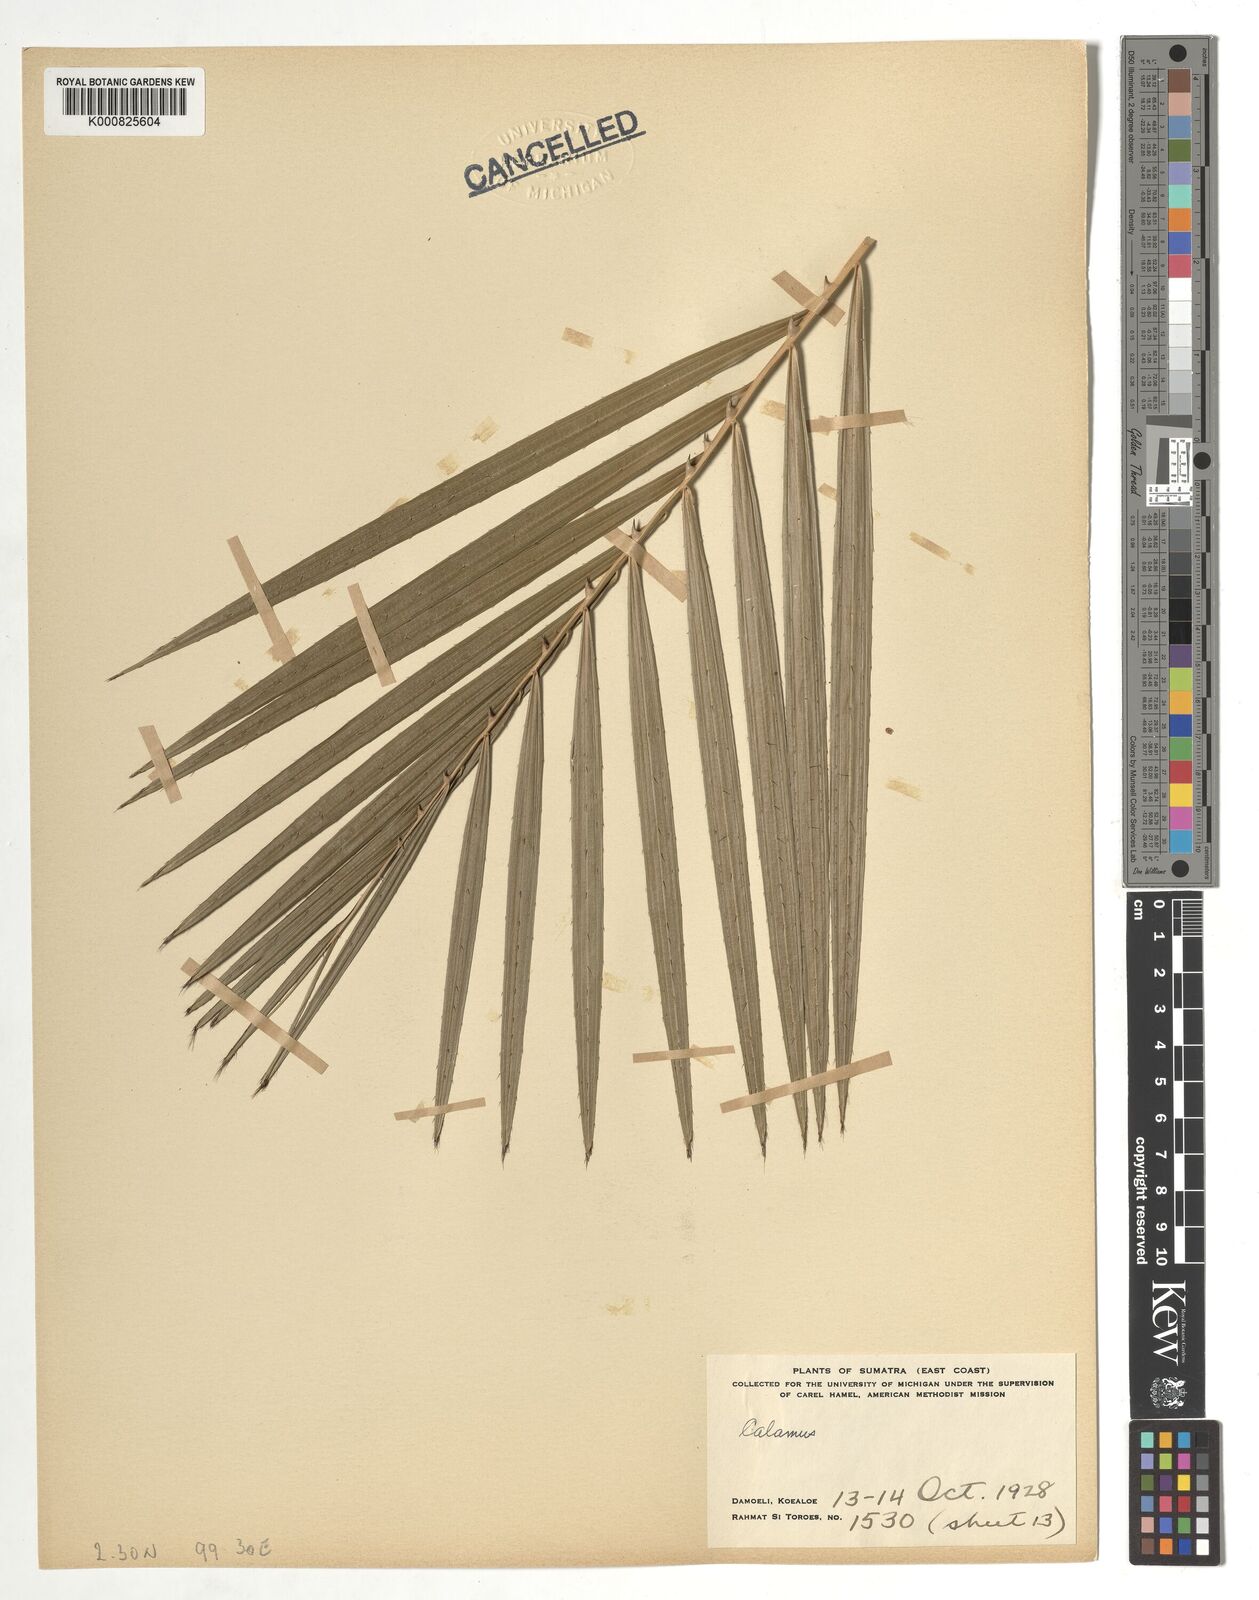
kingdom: Plantae
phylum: Tracheophyta
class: Liliopsida
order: Arecales
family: Arecaceae
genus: Calamus
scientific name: Calamus
